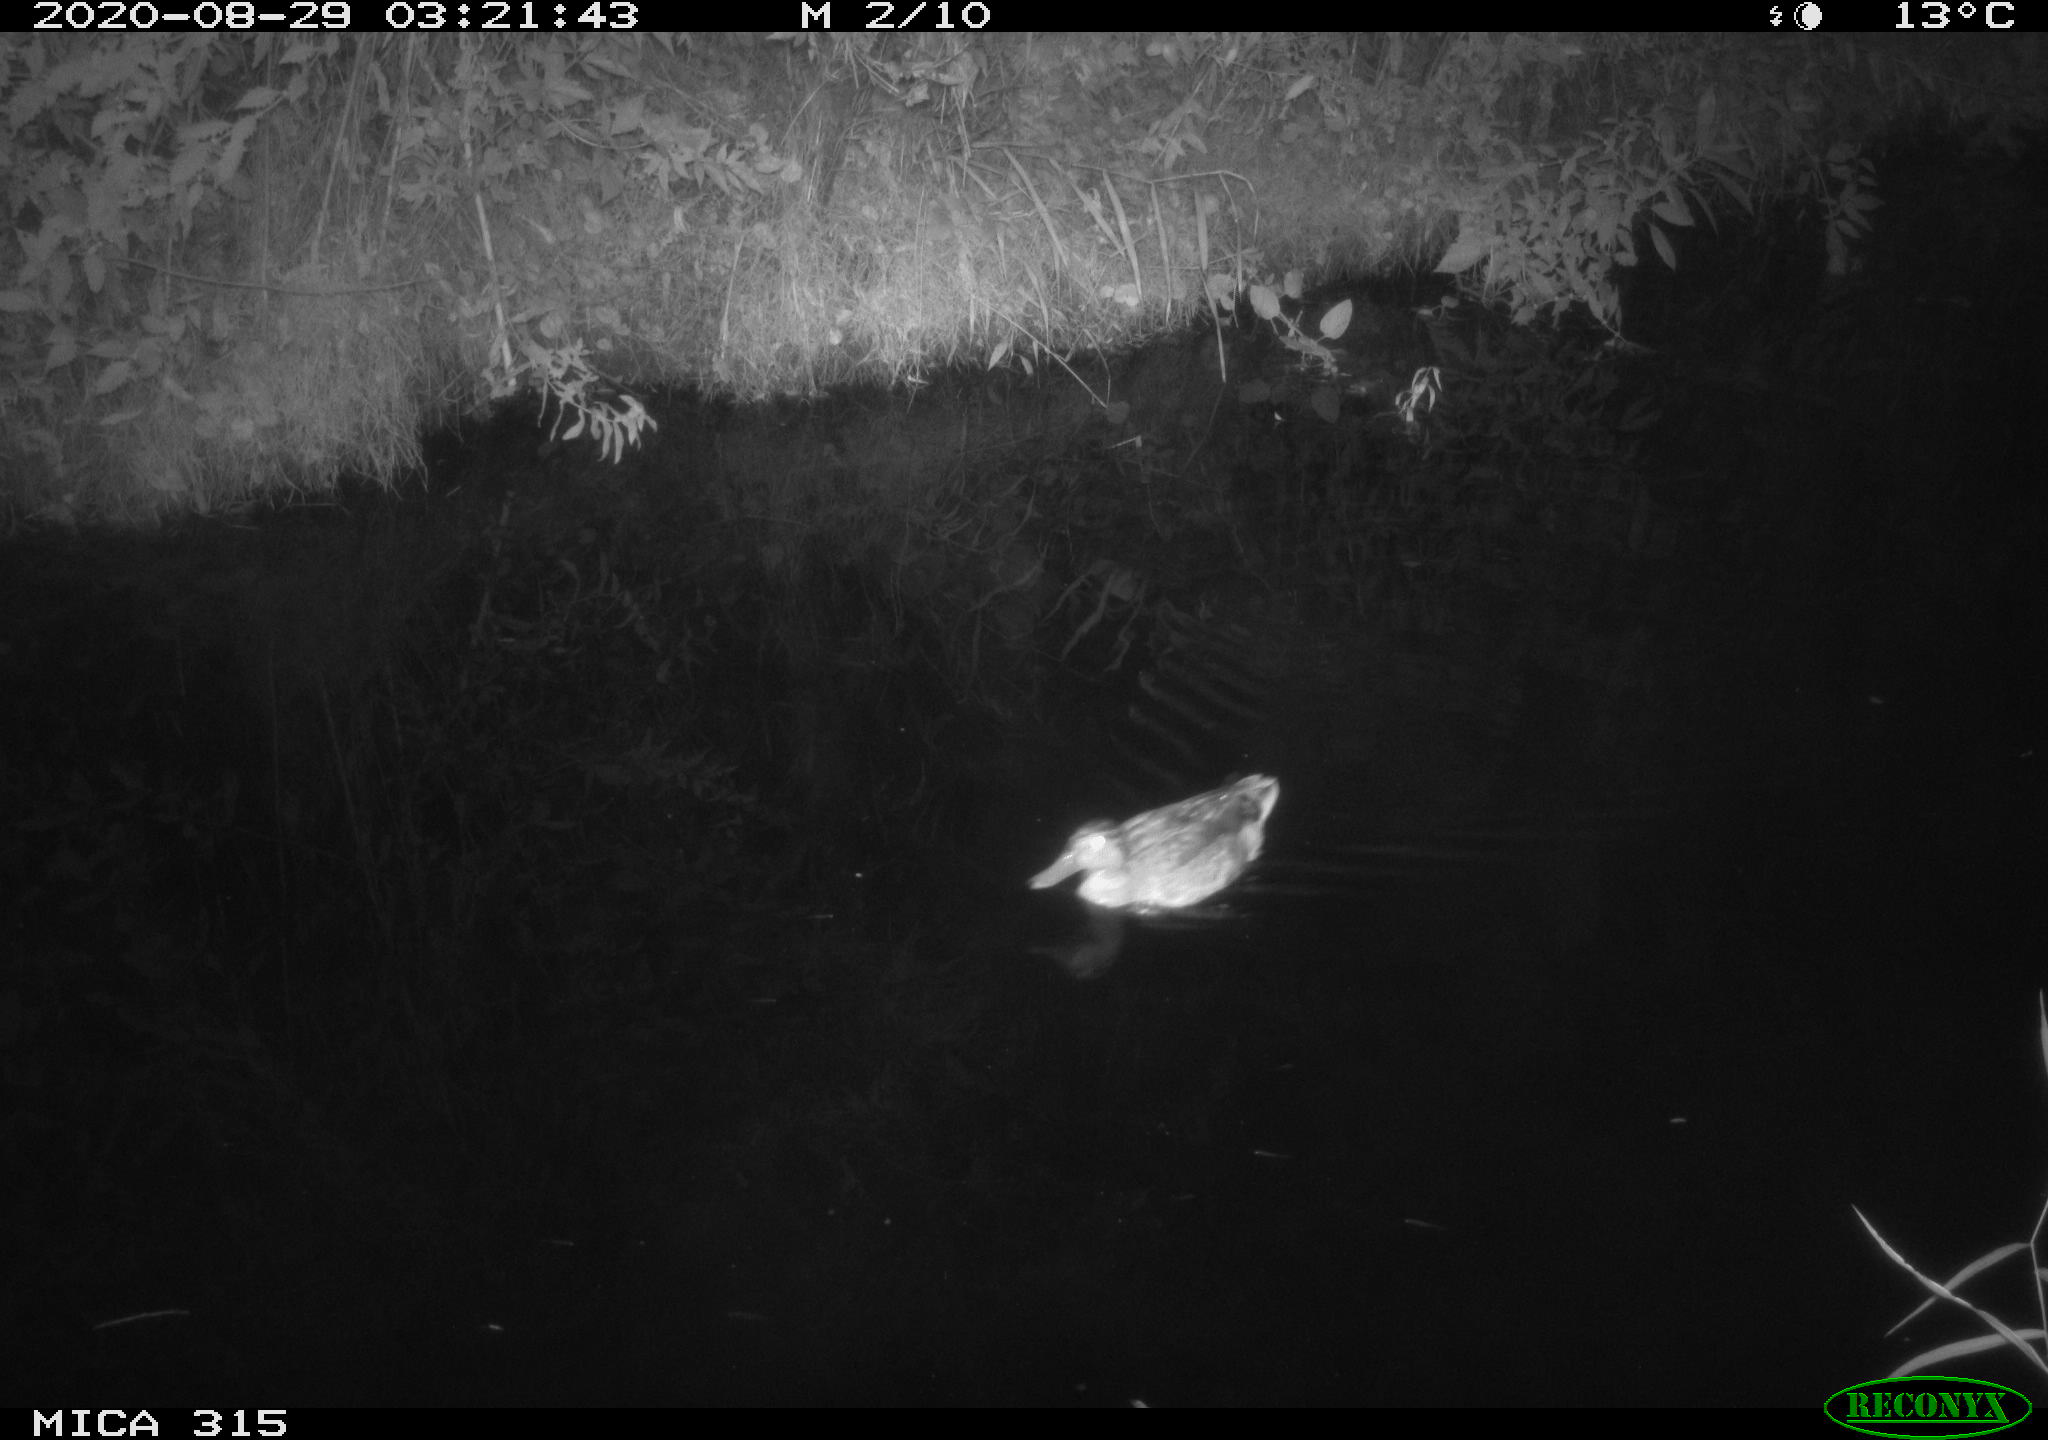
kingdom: Animalia
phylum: Chordata
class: Aves
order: Anseriformes
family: Anatidae
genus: Anas
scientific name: Anas platyrhynchos
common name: Mallard
